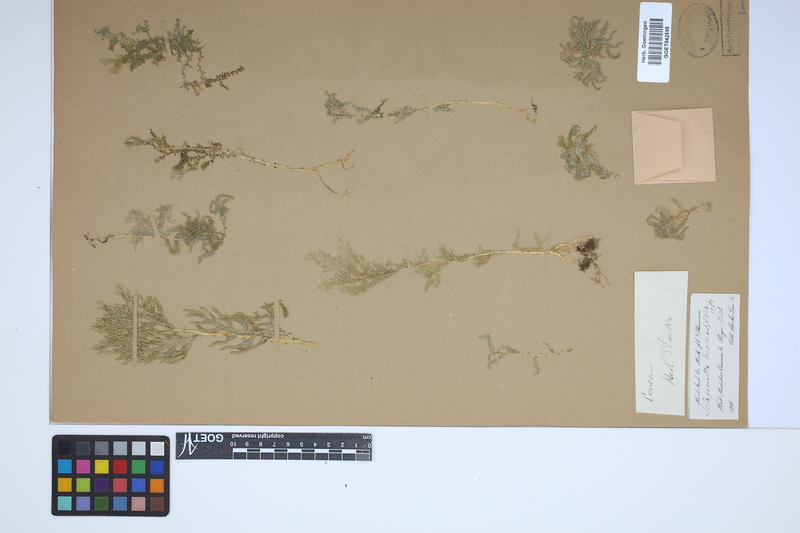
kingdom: Plantae
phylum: Tracheophyta
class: Lycopodiopsida
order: Selaginellales
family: Selaginellaceae
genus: Selaginella
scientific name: Selaginella monospora
